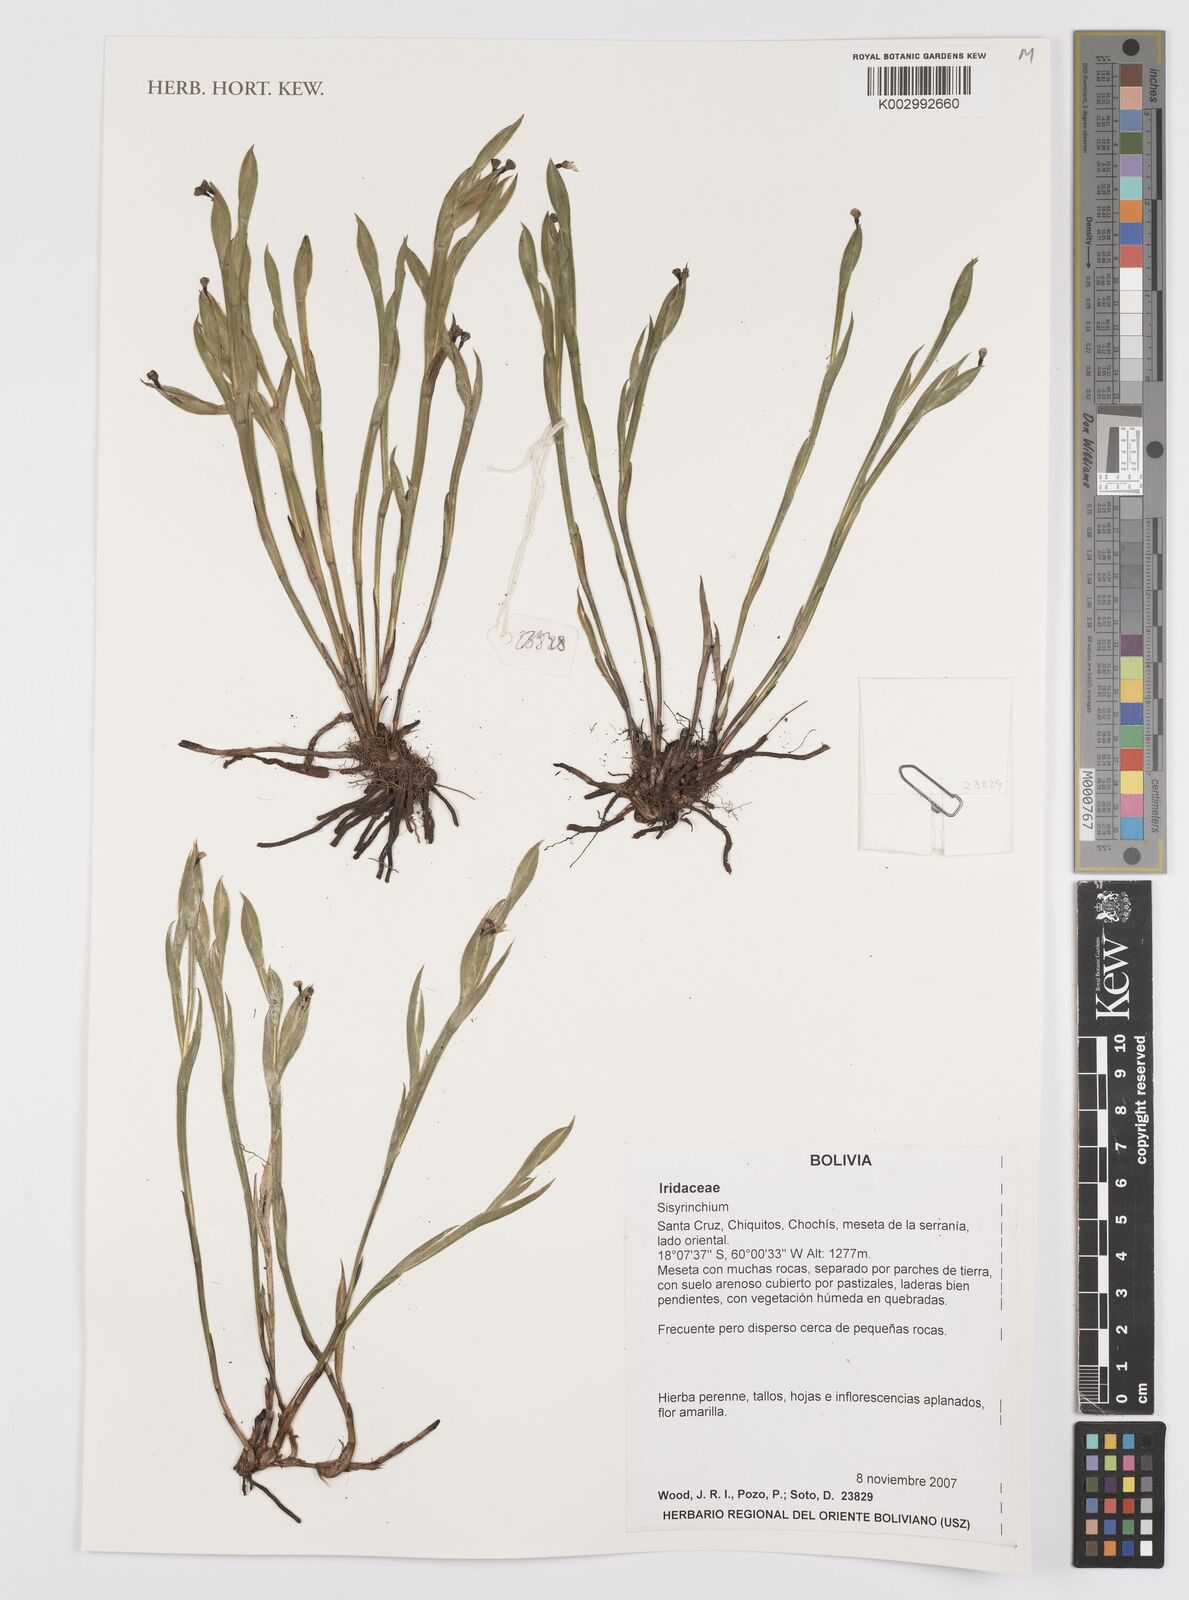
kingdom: Plantae
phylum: Tracheophyta
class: Liliopsida
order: Asparagales
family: Iridaceae
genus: Sisyrinchium
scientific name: Sisyrinchium
